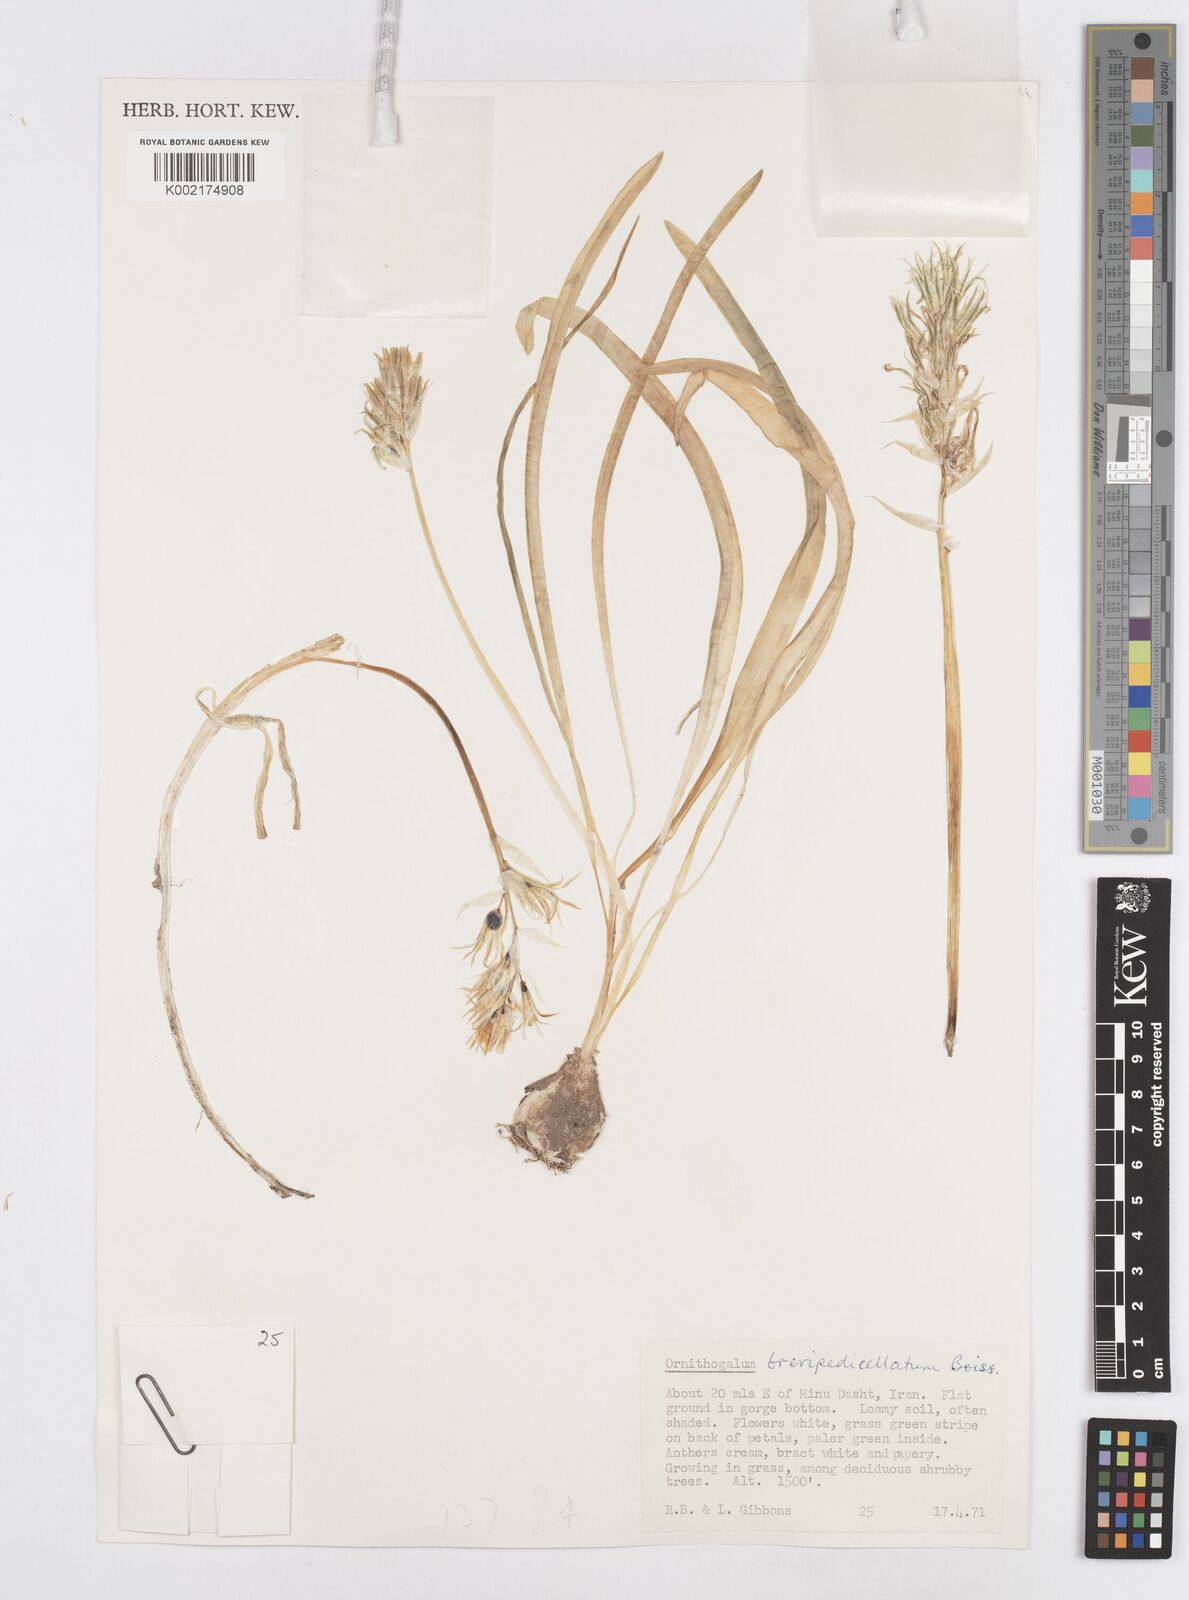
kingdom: Plantae
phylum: Tracheophyta
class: Liliopsida
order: Asparagales
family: Asparagaceae
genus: Ornithogalum
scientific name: Ornithogalum brevipedicellatum
